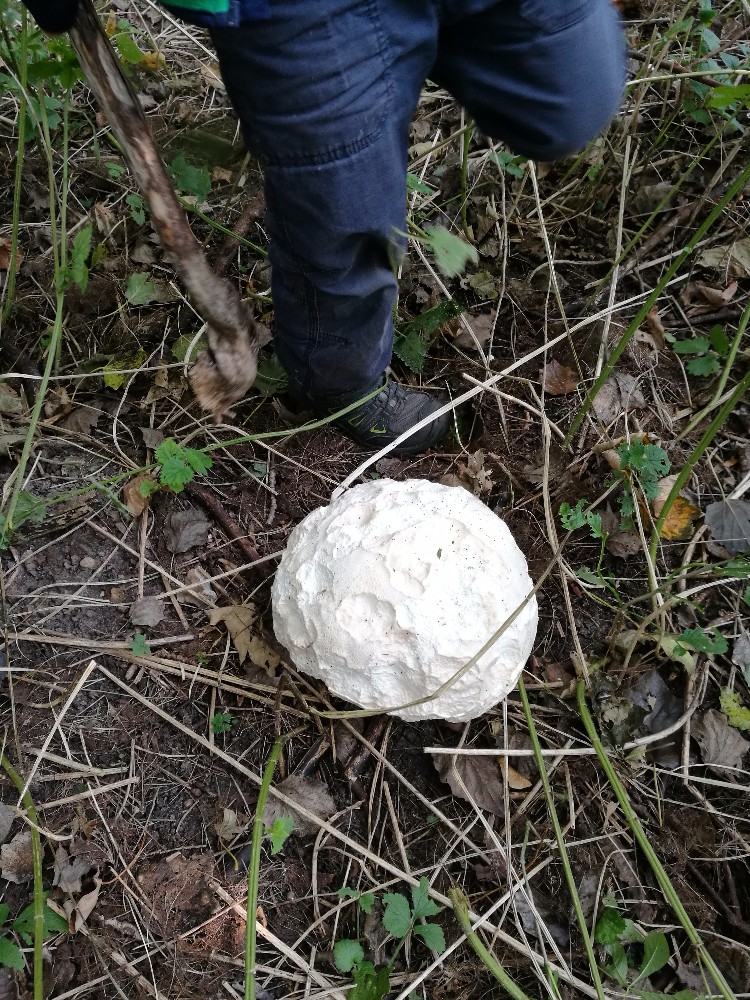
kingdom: Fungi
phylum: Basidiomycota
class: Agaricomycetes
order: Agaricales
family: Lycoperdaceae
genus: Calvatia
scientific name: Calvatia gigantea
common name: kæmpestøvbold
